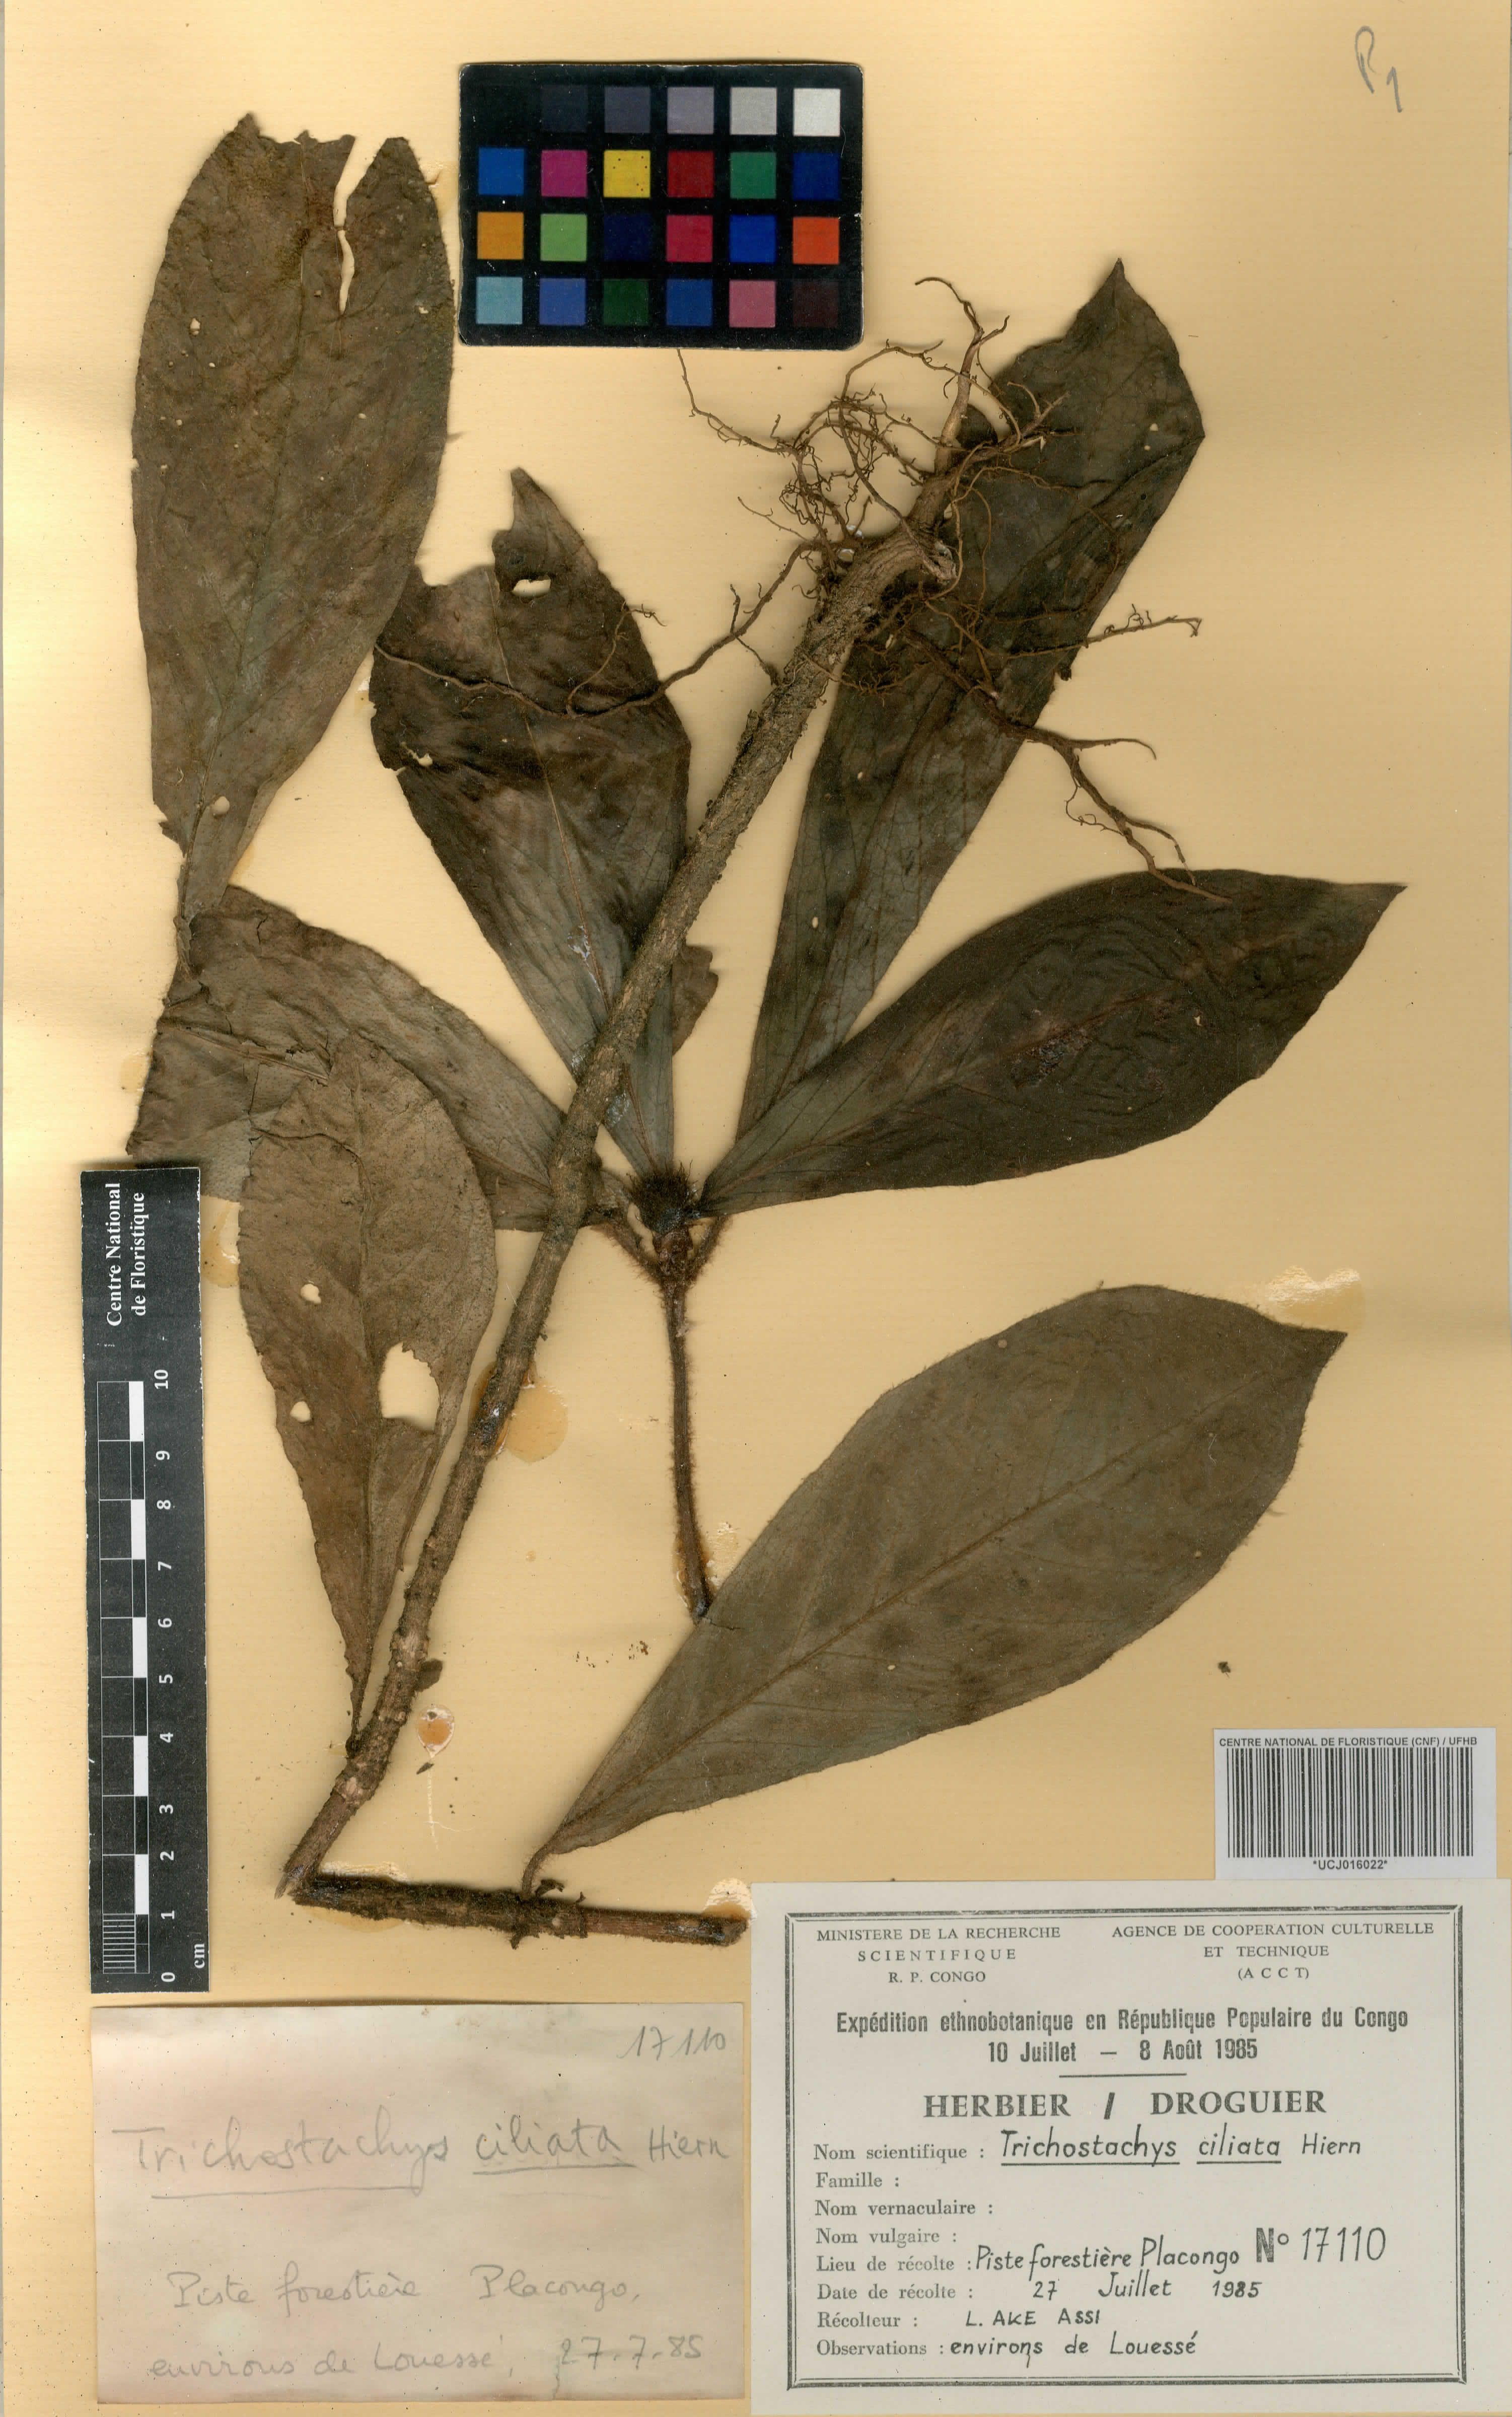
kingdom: Plantae
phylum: Tracheophyta
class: Magnoliopsida
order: Gentianales
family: Rubiaceae
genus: Psychotria
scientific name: Psychotria saccata
